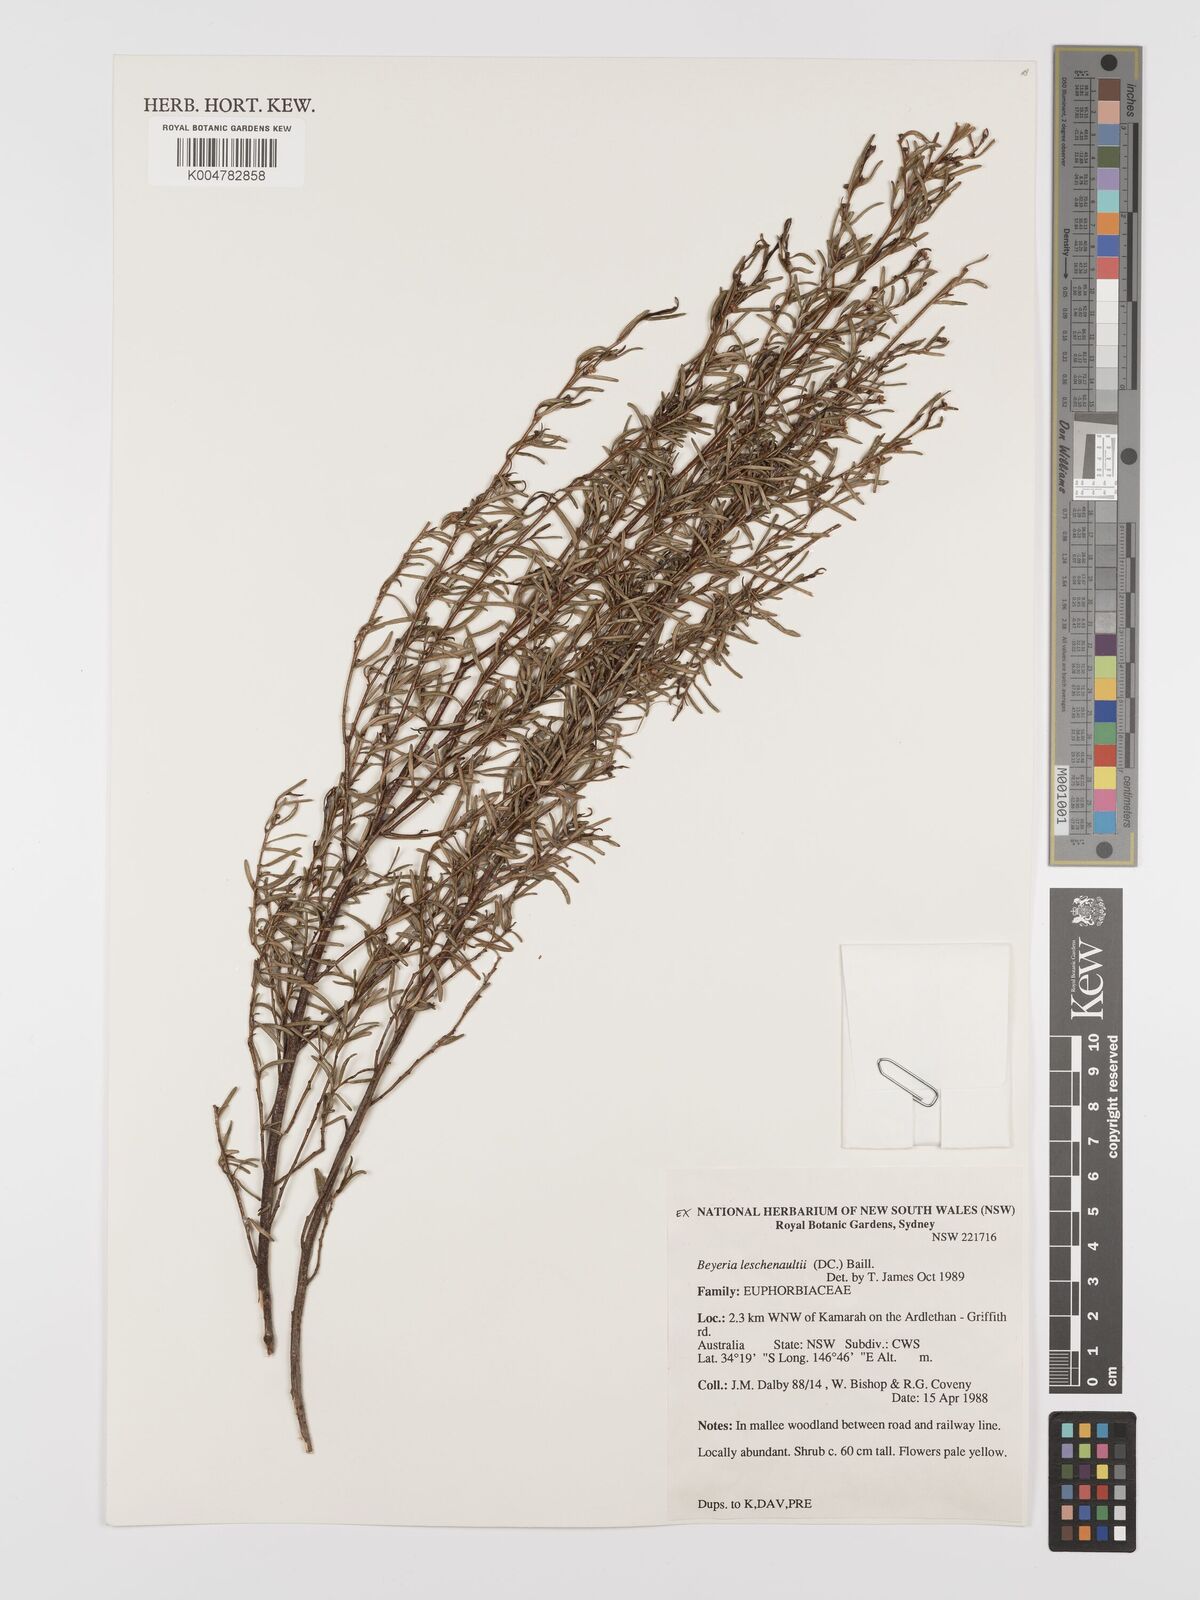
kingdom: Plantae
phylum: Tracheophyta
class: Magnoliopsida
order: Malpighiales
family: Euphorbiaceae
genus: Beyeria
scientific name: Beyeria lechenaultii
